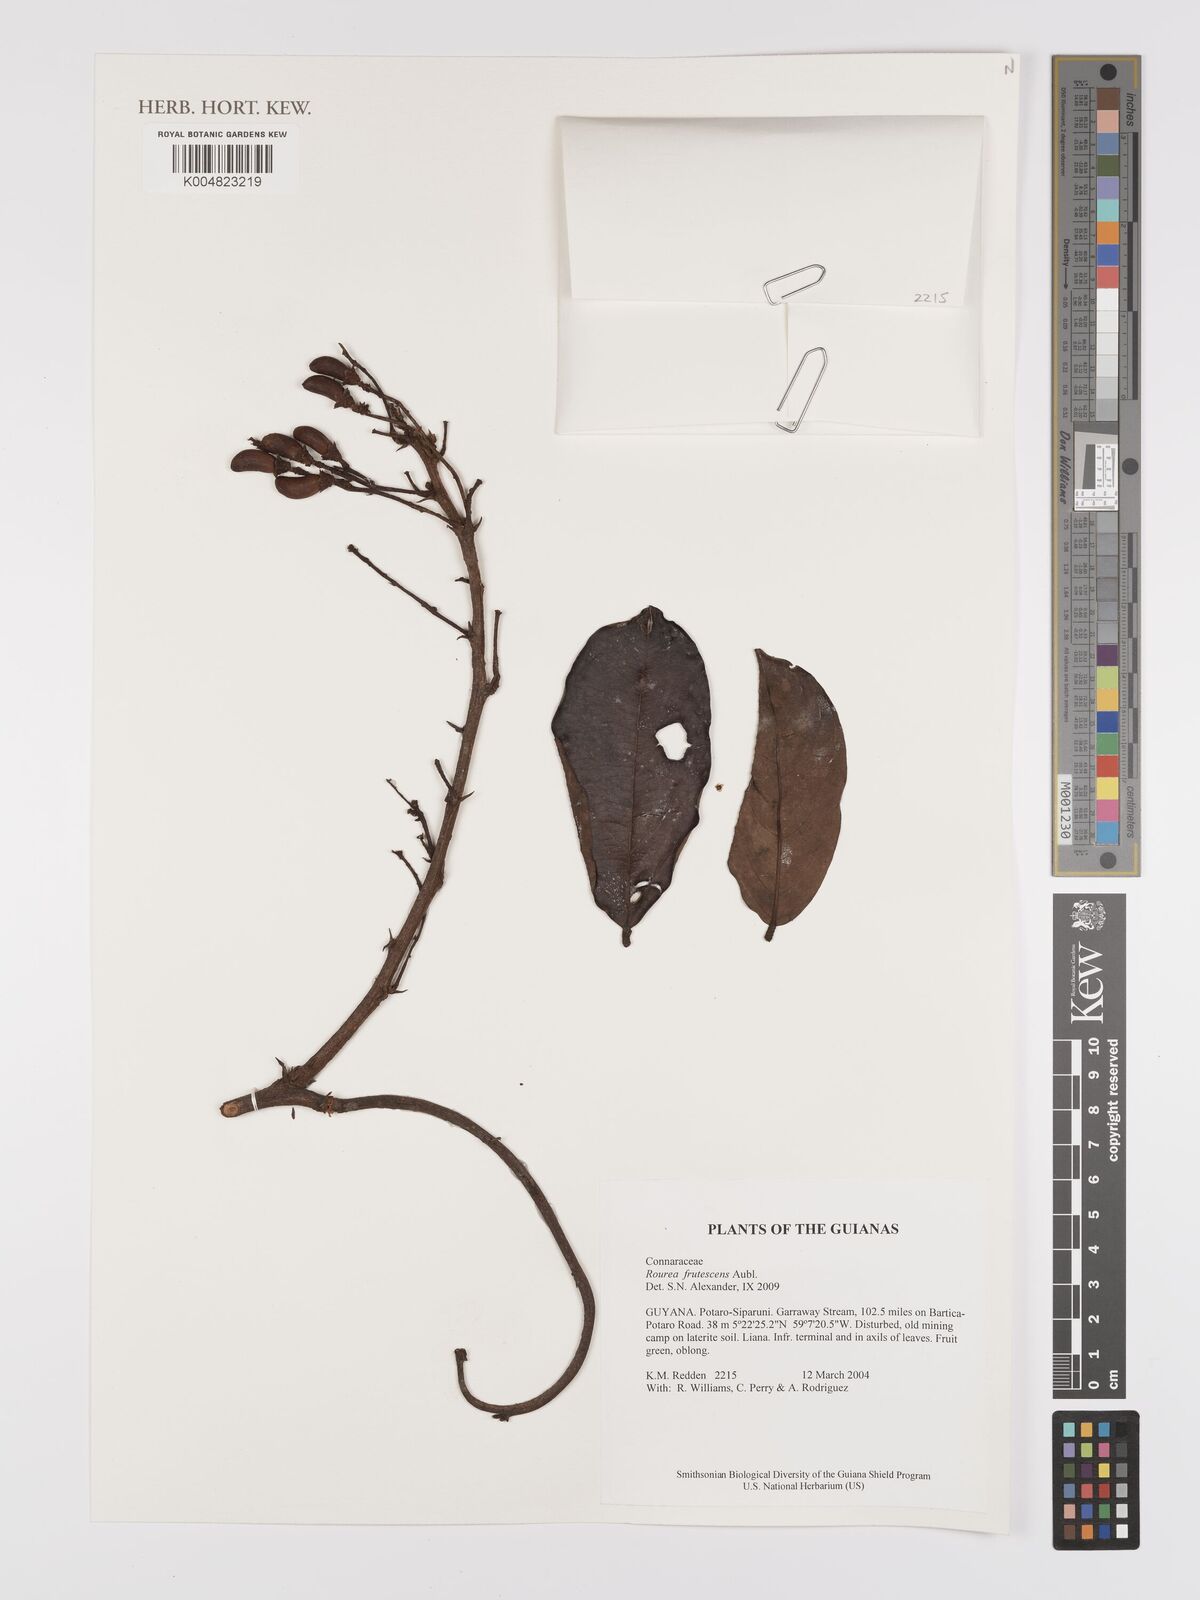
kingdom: Plantae
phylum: Tracheophyta
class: Magnoliopsida
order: Oxalidales
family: Connaraceae
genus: Rourea
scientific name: Rourea frutescens
